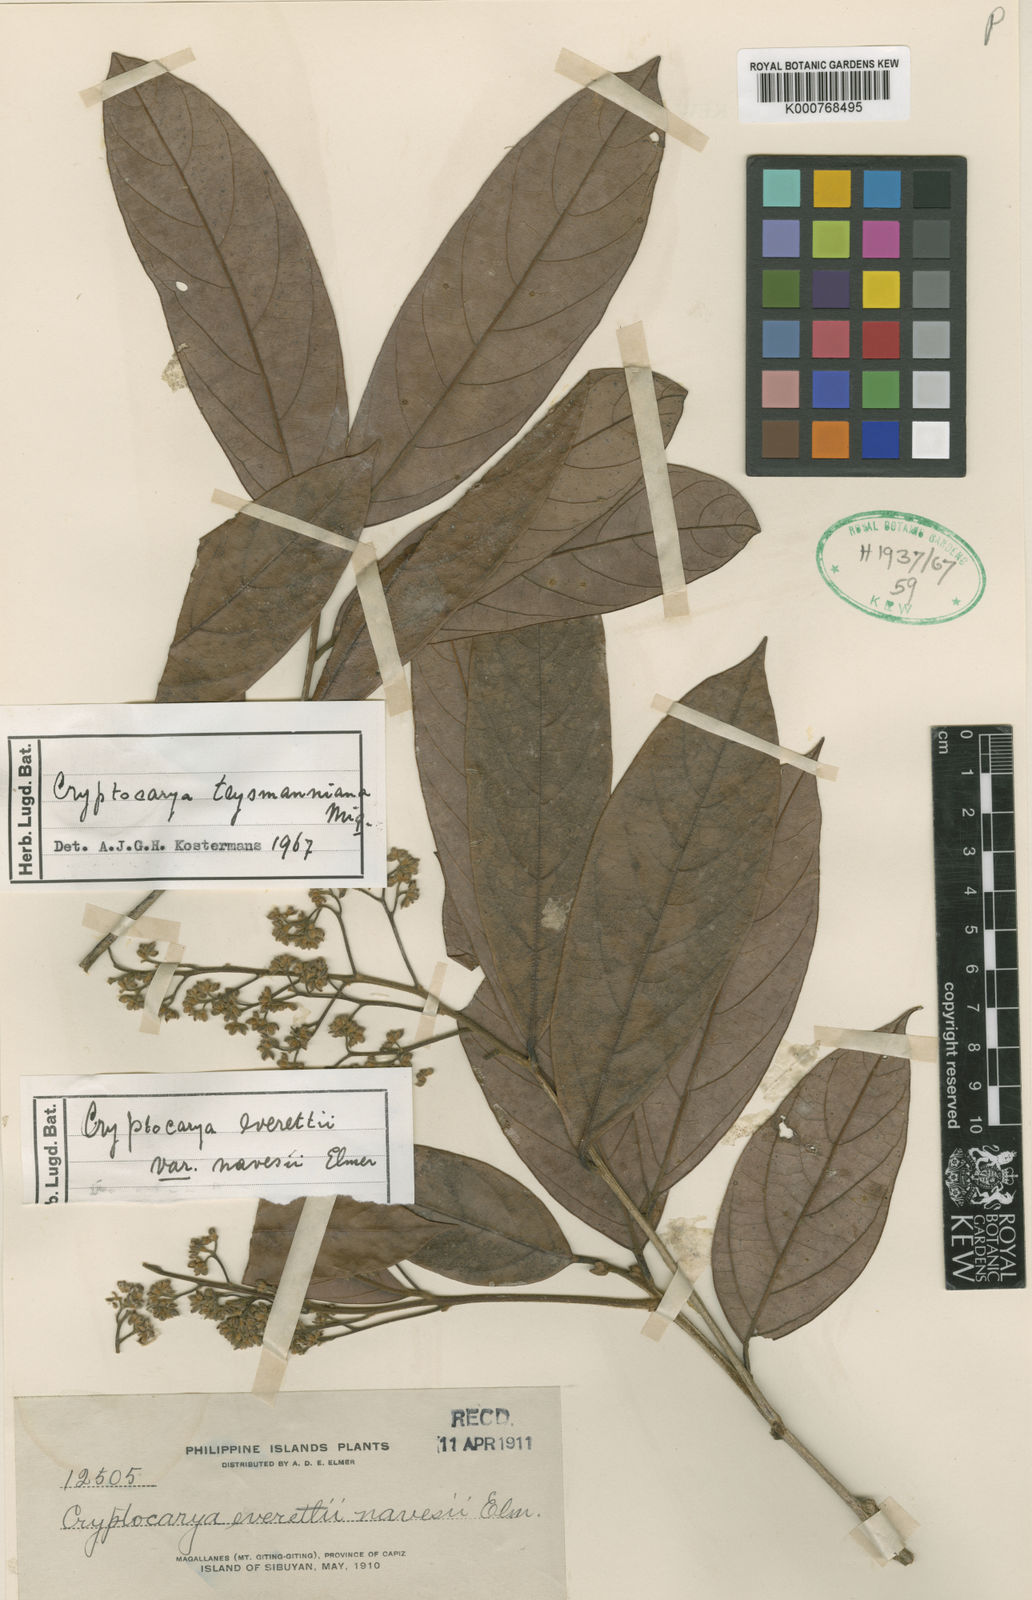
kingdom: Plantae
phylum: Tracheophyta
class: Magnoliopsida
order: Laurales
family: Lauraceae
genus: Cryptocarya
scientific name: Cryptocarya teysmanniana
